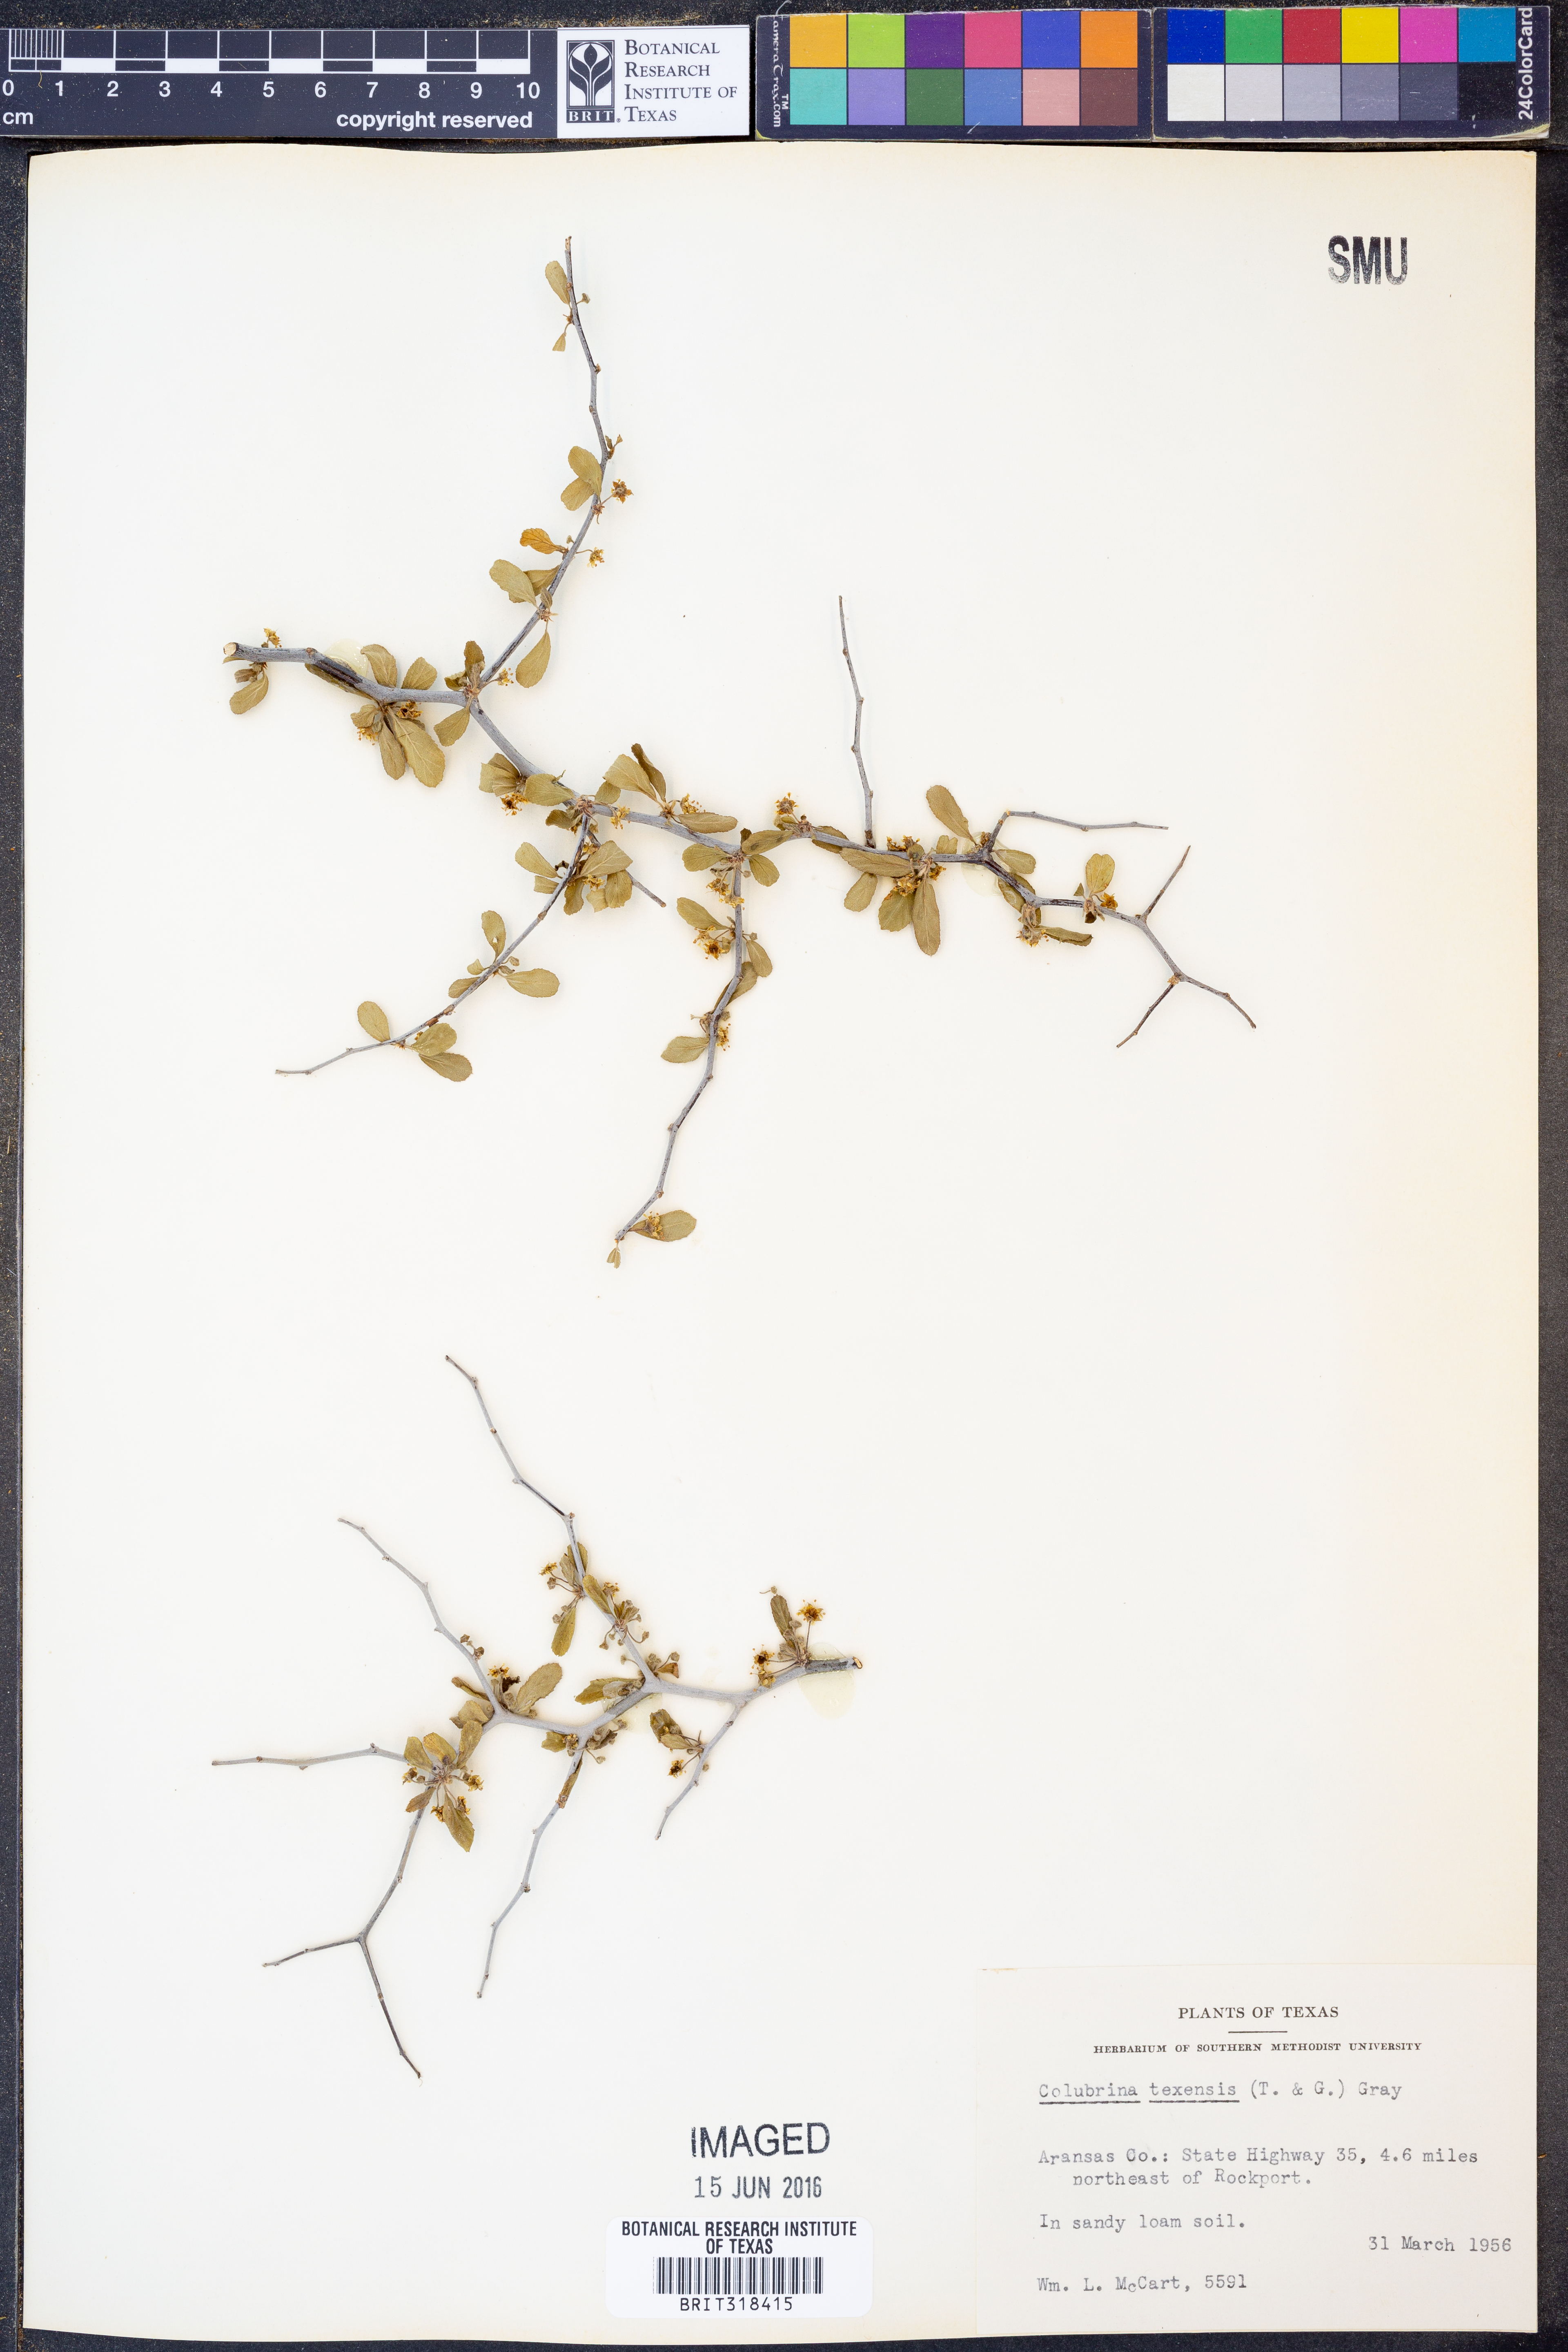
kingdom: Plantae
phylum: Tracheophyta
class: Magnoliopsida
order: Rosales
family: Rhamnaceae
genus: Colubrina
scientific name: Colubrina texensis
